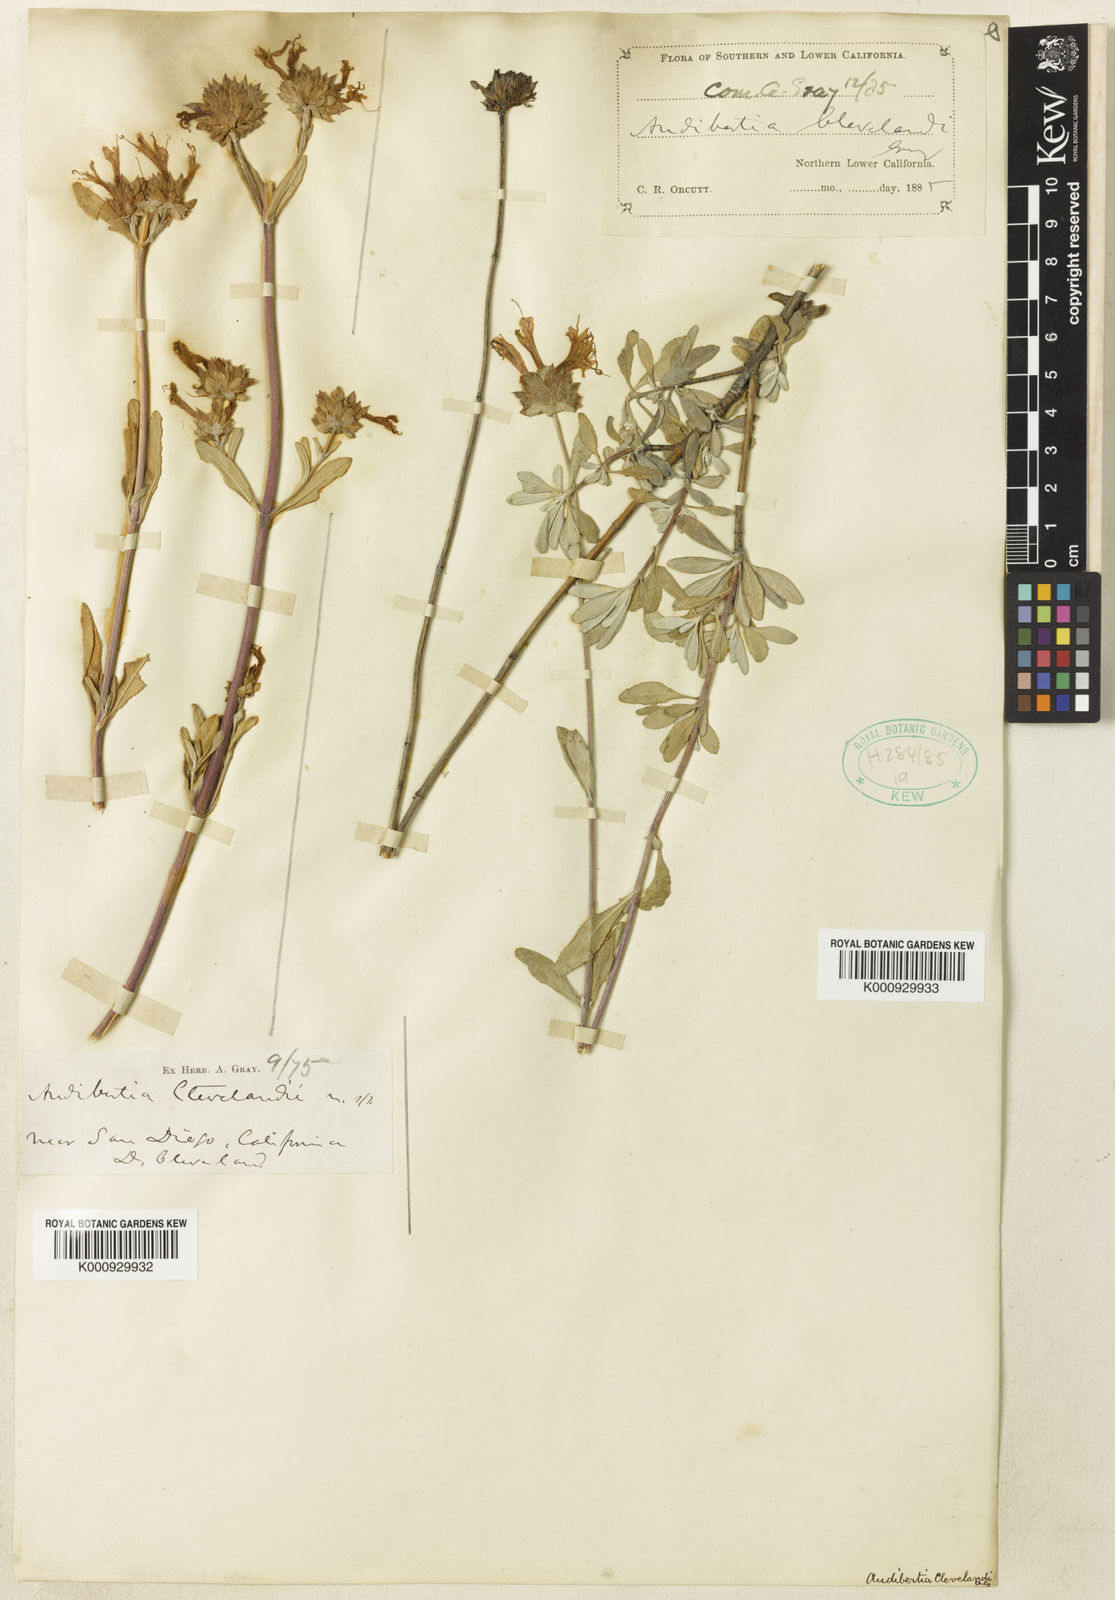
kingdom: Plantae
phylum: Tracheophyta
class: Magnoliopsida
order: Lamiales
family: Lamiaceae
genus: Salvia
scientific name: Salvia clevelandii
